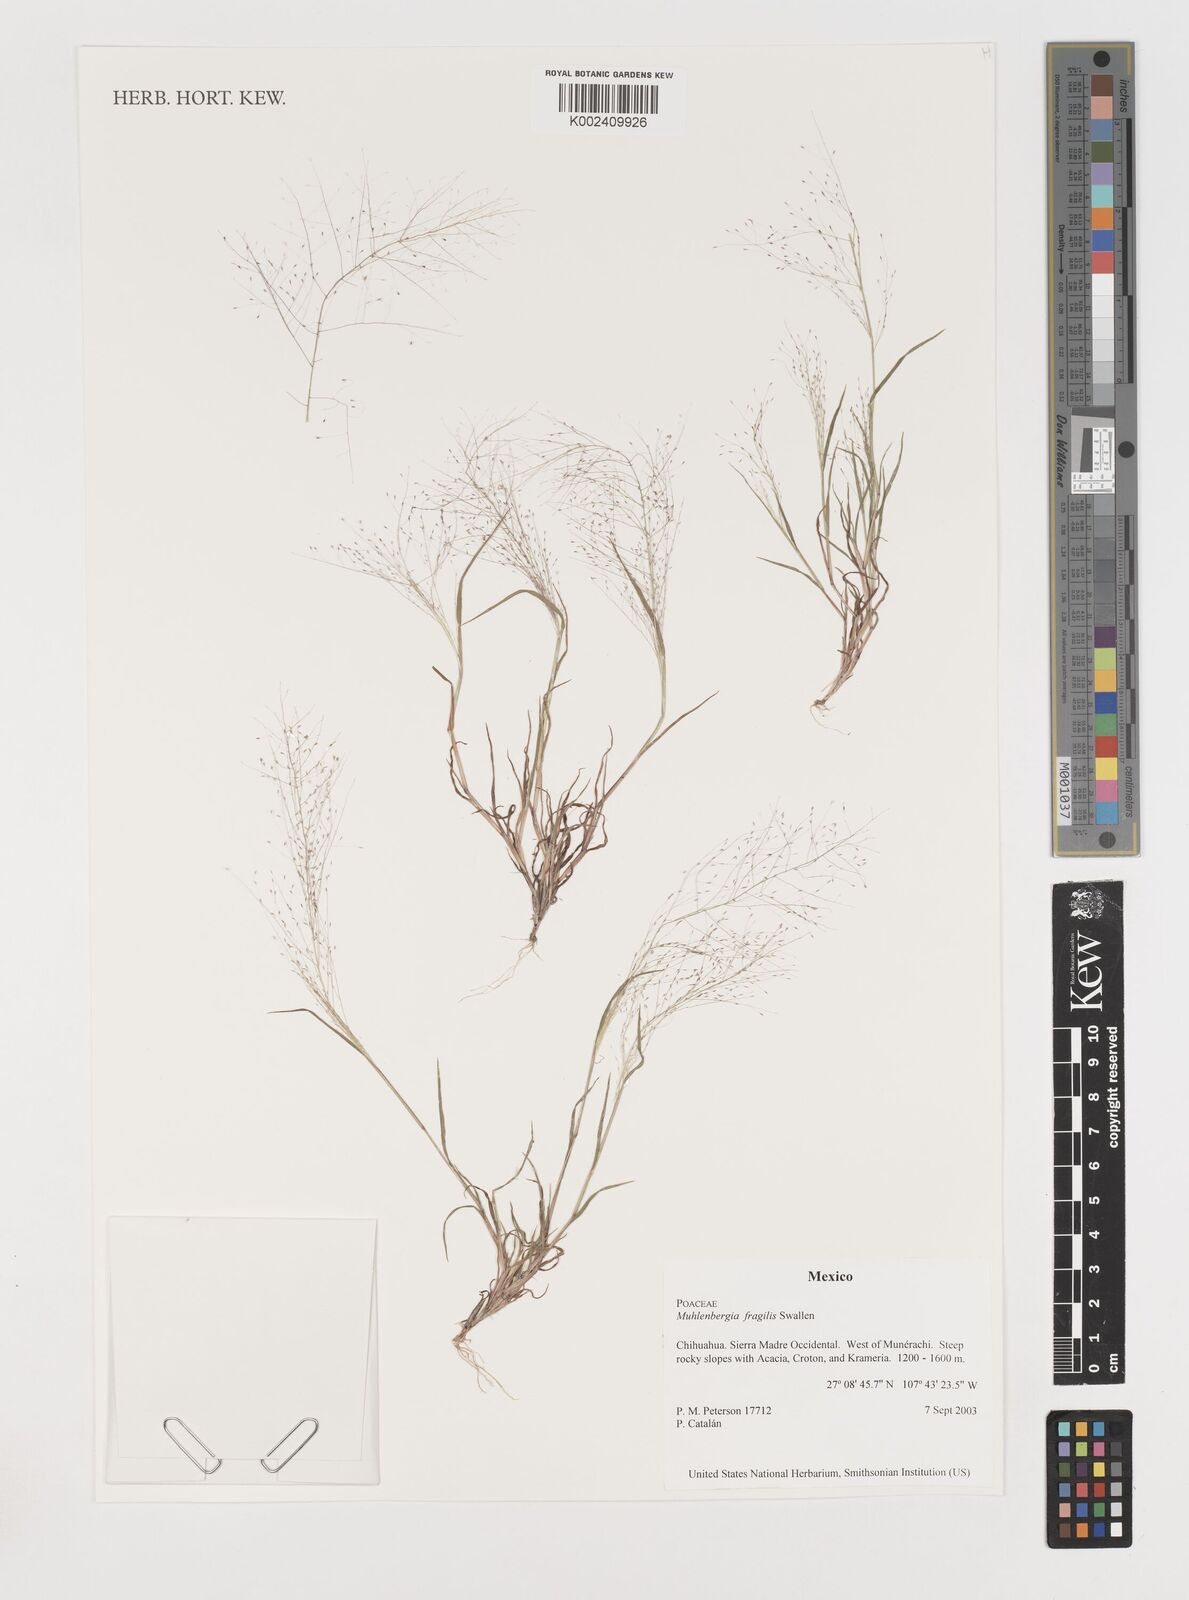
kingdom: Plantae
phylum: Tracheophyta
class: Liliopsida
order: Poales
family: Poaceae
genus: Muhlenbergia
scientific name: Muhlenbergia fragilis
